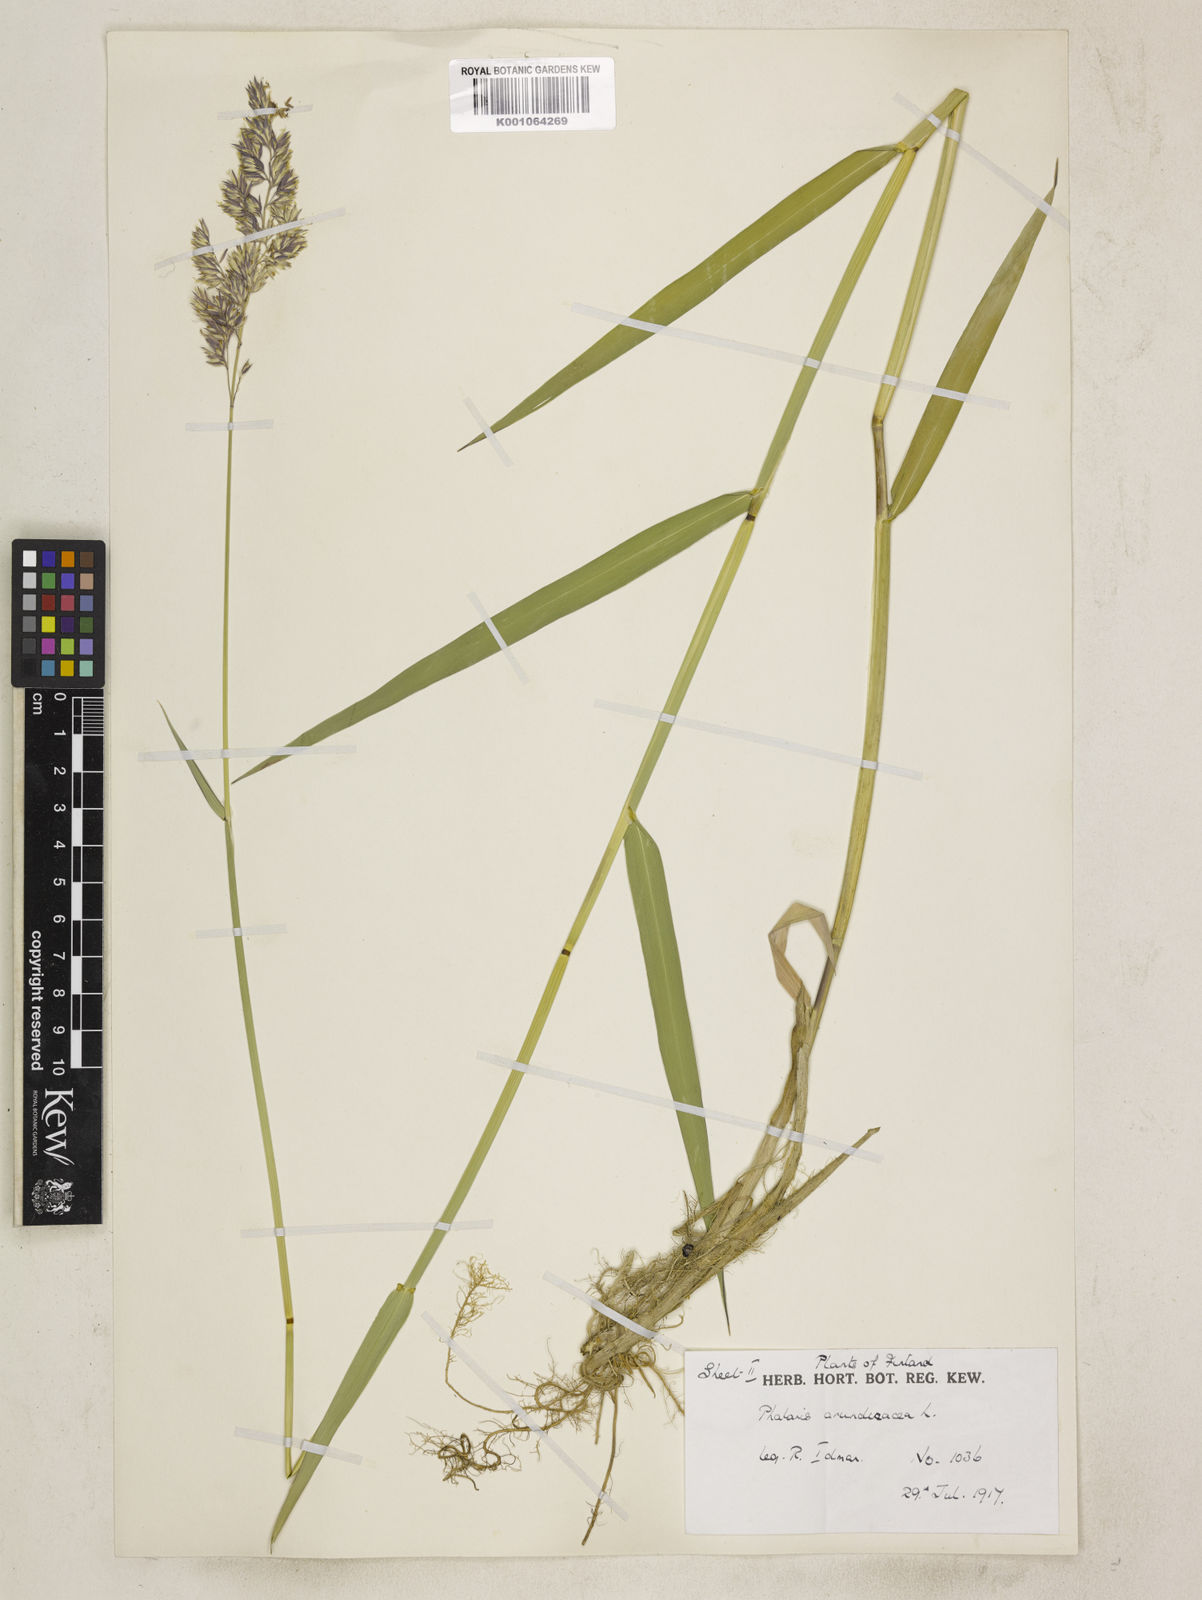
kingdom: Plantae
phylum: Tracheophyta
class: Liliopsida
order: Poales
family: Poaceae
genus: Phalaris
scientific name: Phalaris arundinacea
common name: Reed canary-grass
